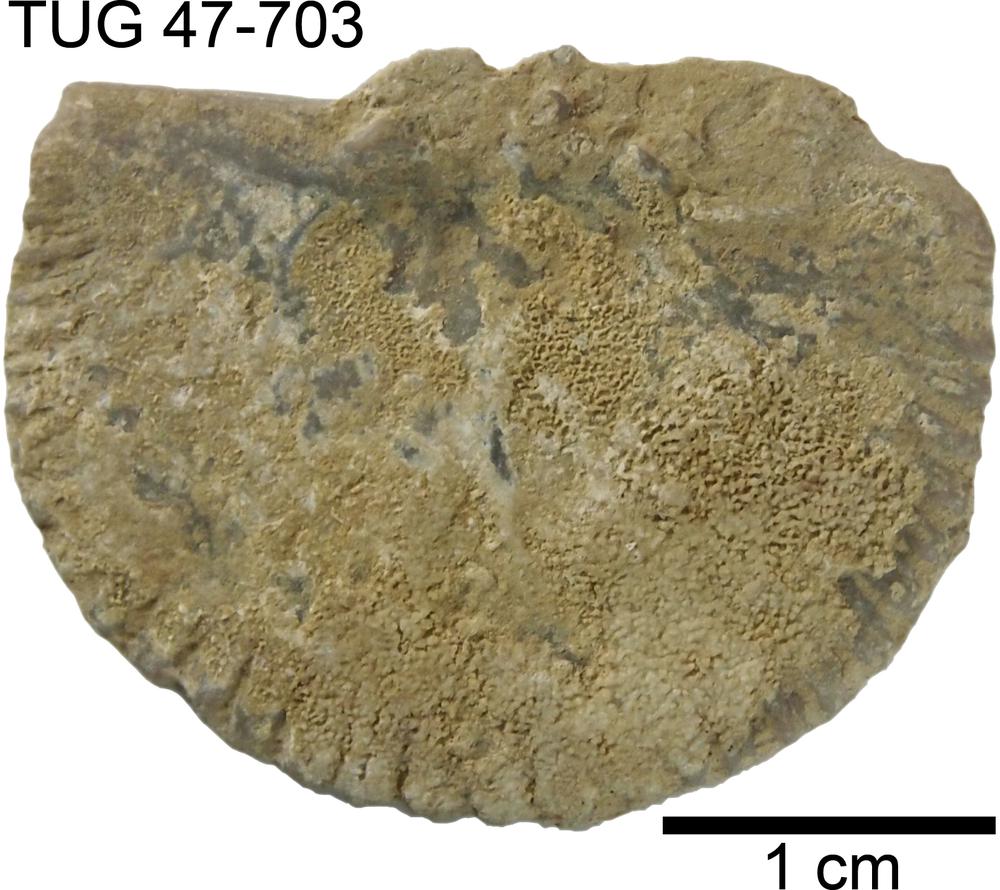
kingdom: Animalia
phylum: Brachiopoda
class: Rhynchonellata
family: Orthidae
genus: Cyrtonotella
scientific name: Cyrtonotella
